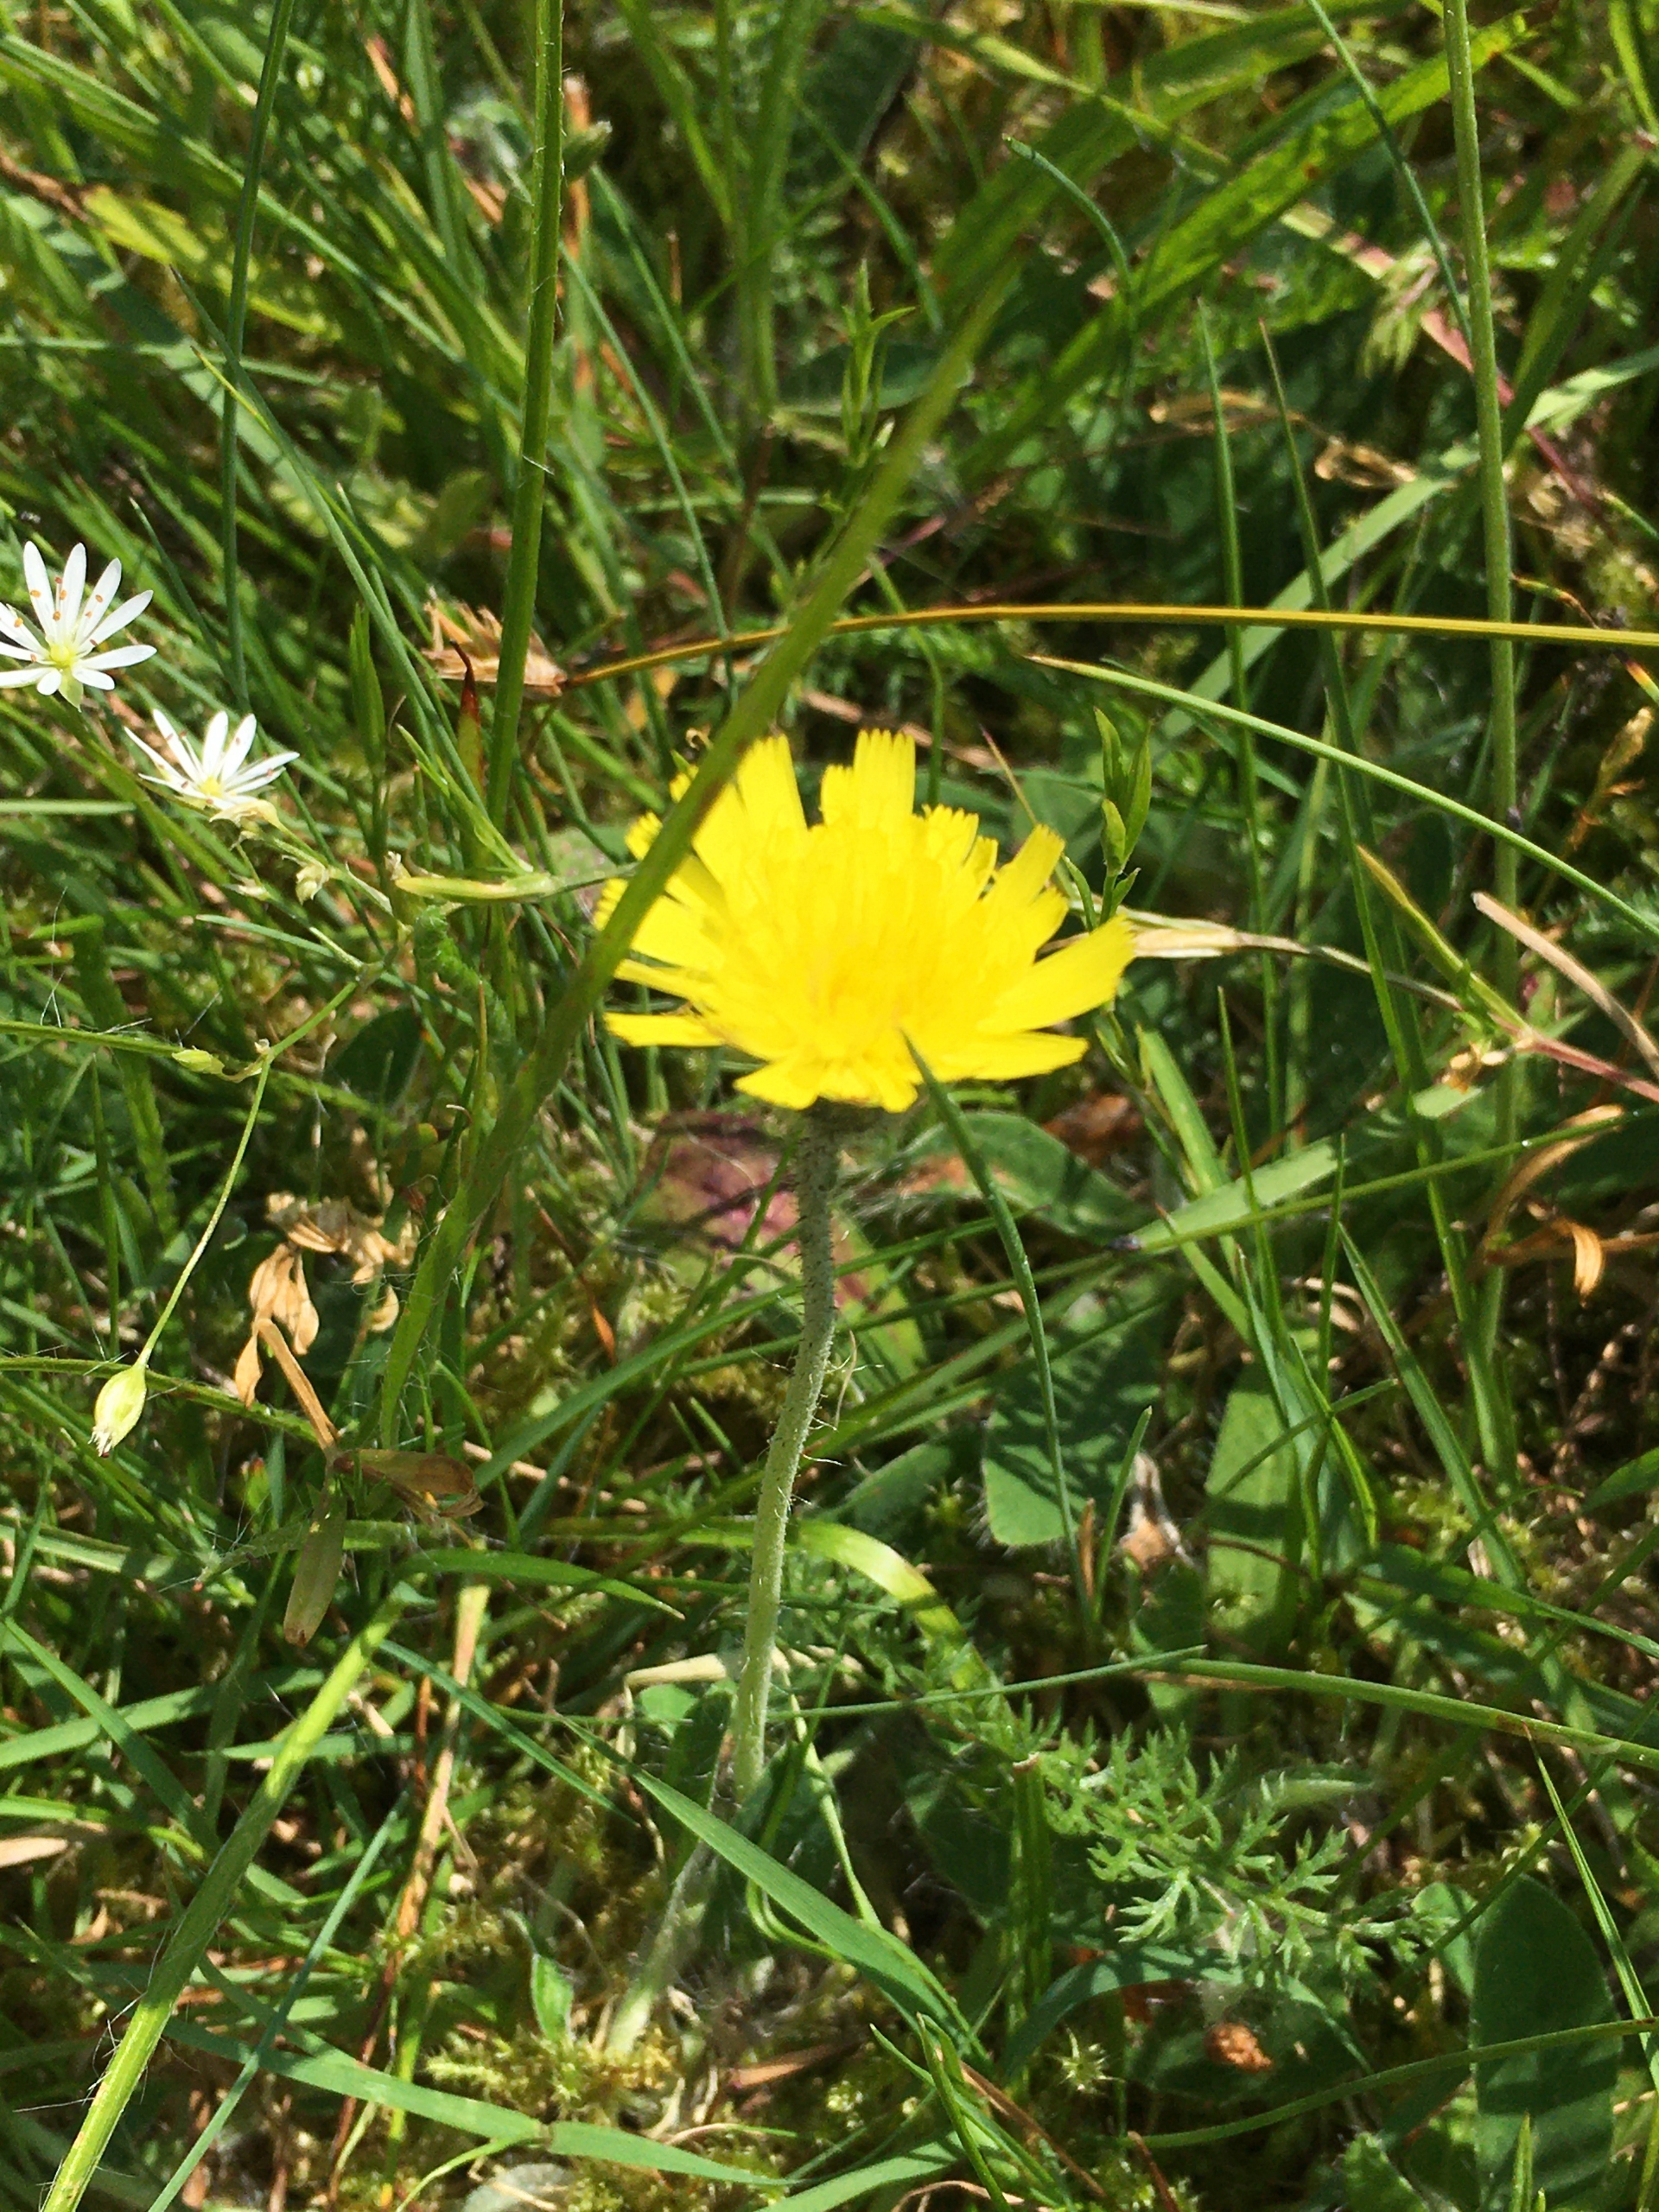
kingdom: Plantae
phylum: Tracheophyta
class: Magnoliopsida
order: Asterales
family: Asteraceae
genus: Pilosella
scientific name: Pilosella officinarum
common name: Håret høgeurt
